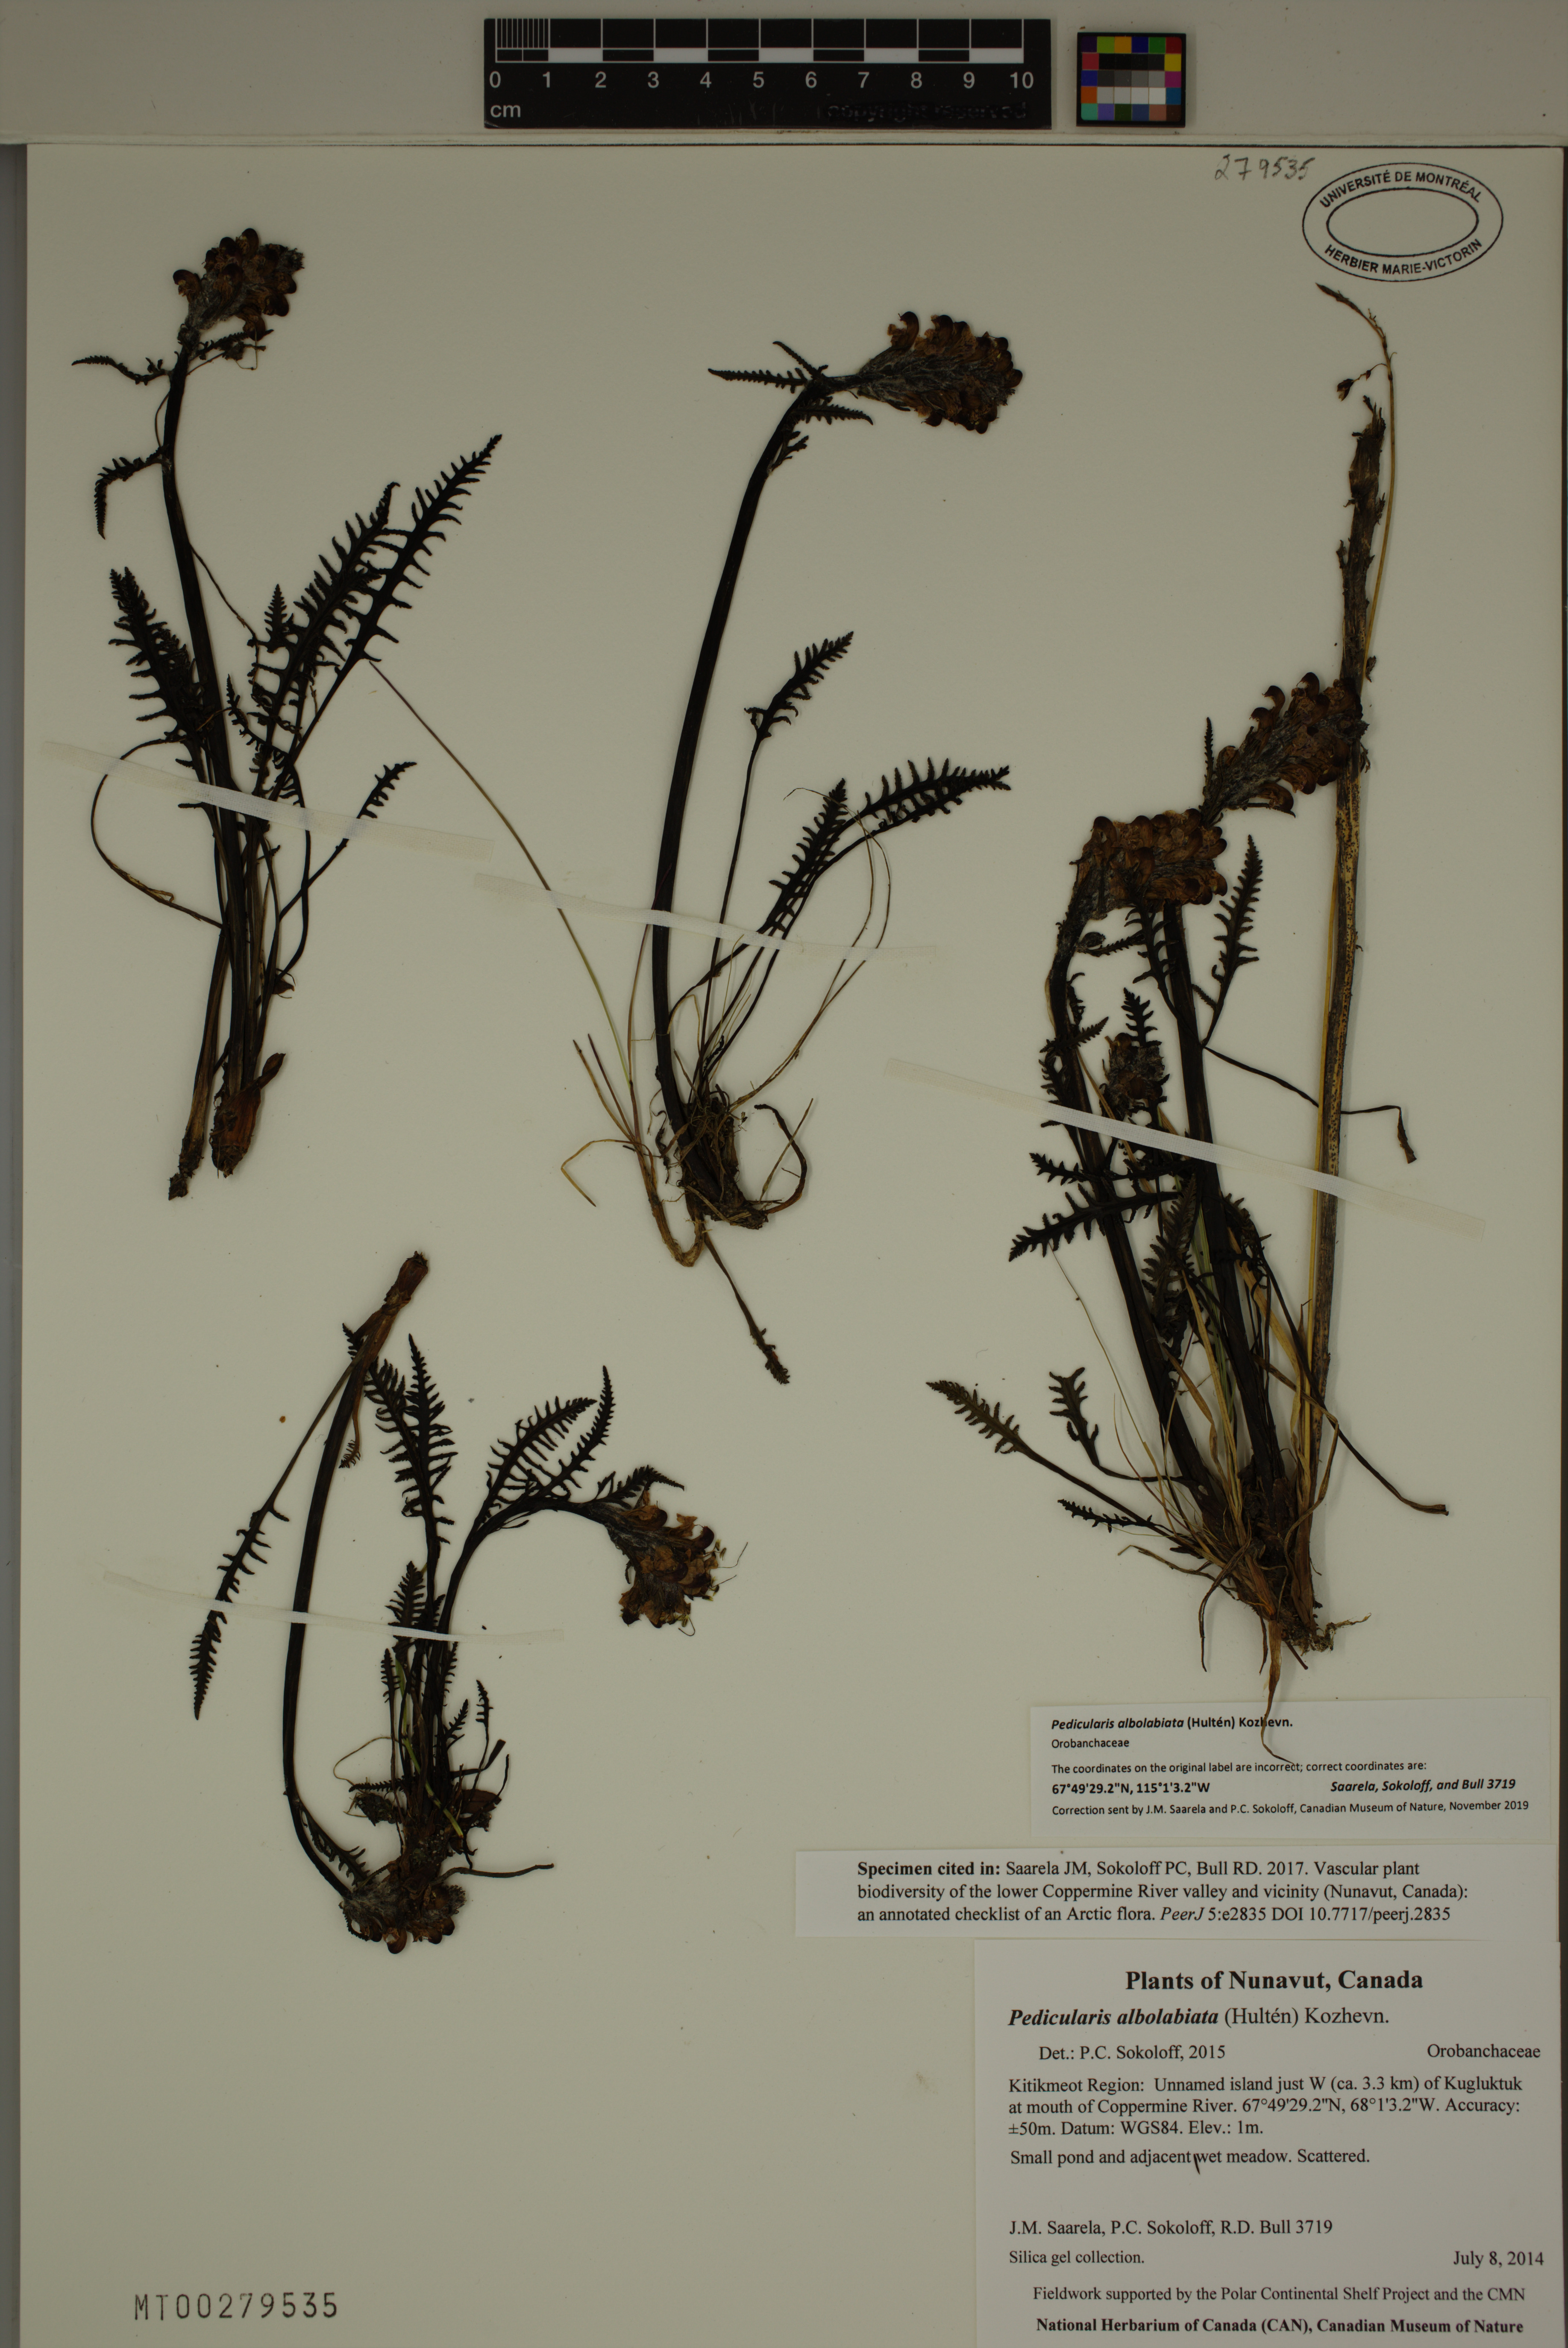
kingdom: Plantae
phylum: Tracheophyta
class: Magnoliopsida
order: Lamiales
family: Orobanchaceae
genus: Pedicularis
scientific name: Pedicularis novaiae-zemliae
